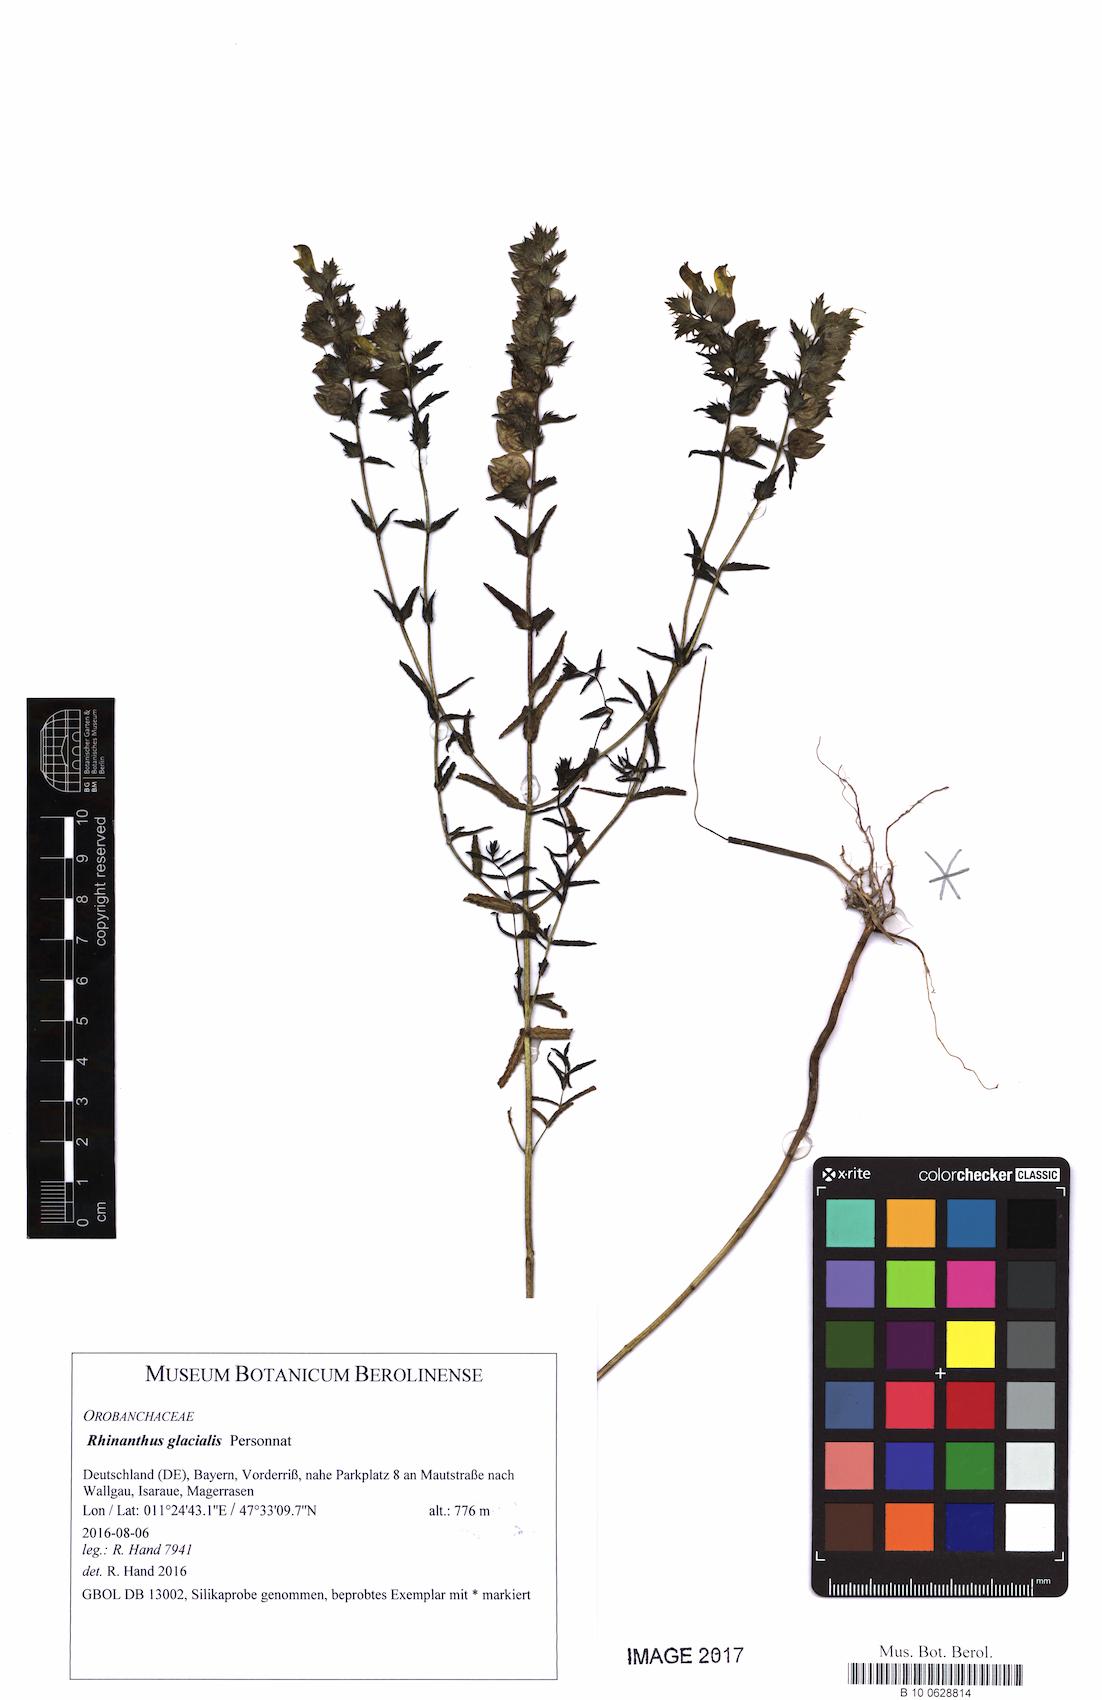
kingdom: Plantae
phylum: Tracheophyta
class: Magnoliopsida
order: Lamiales
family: Orobanchaceae
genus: Rhinanthus
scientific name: Rhinanthus glacialis
